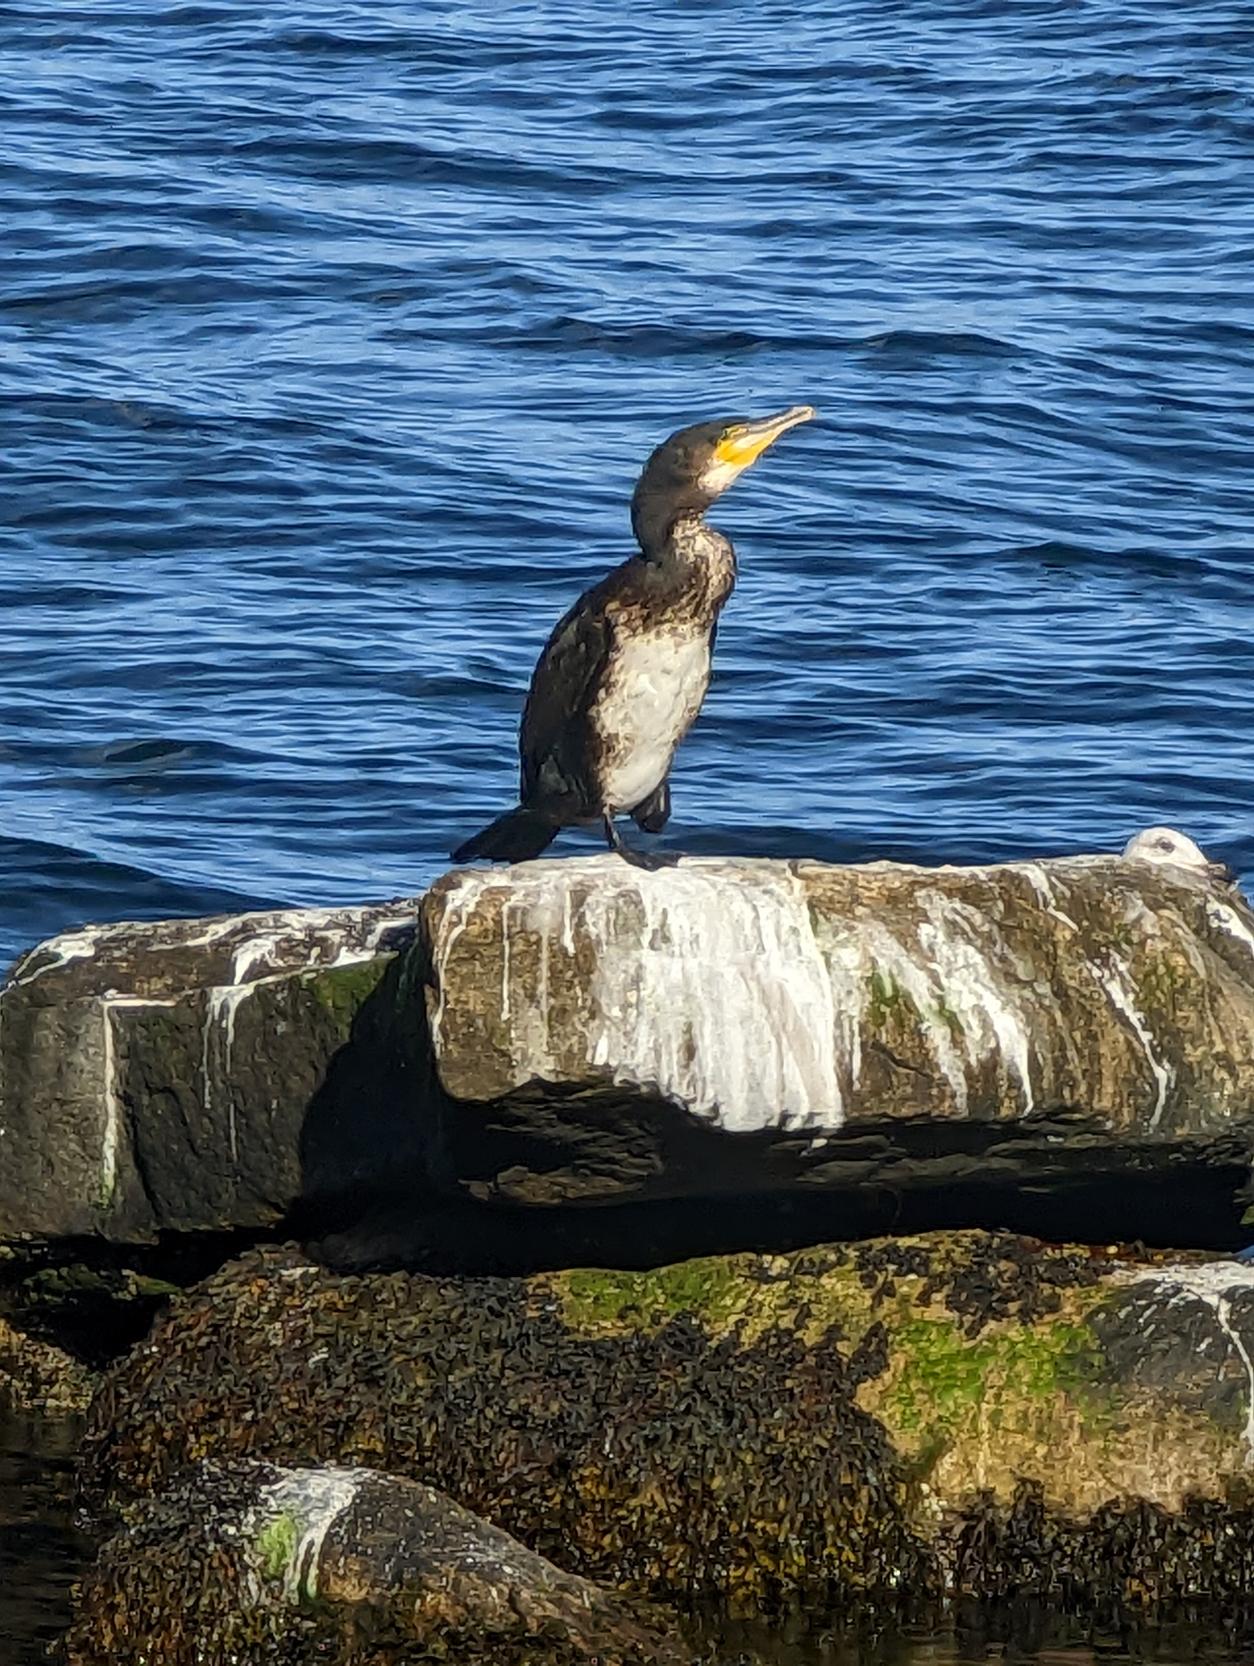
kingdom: Animalia
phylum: Chordata
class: Aves
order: Suliformes
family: Phalacrocoracidae
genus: Phalacrocorax
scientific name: Phalacrocorax carbo
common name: Skarv
